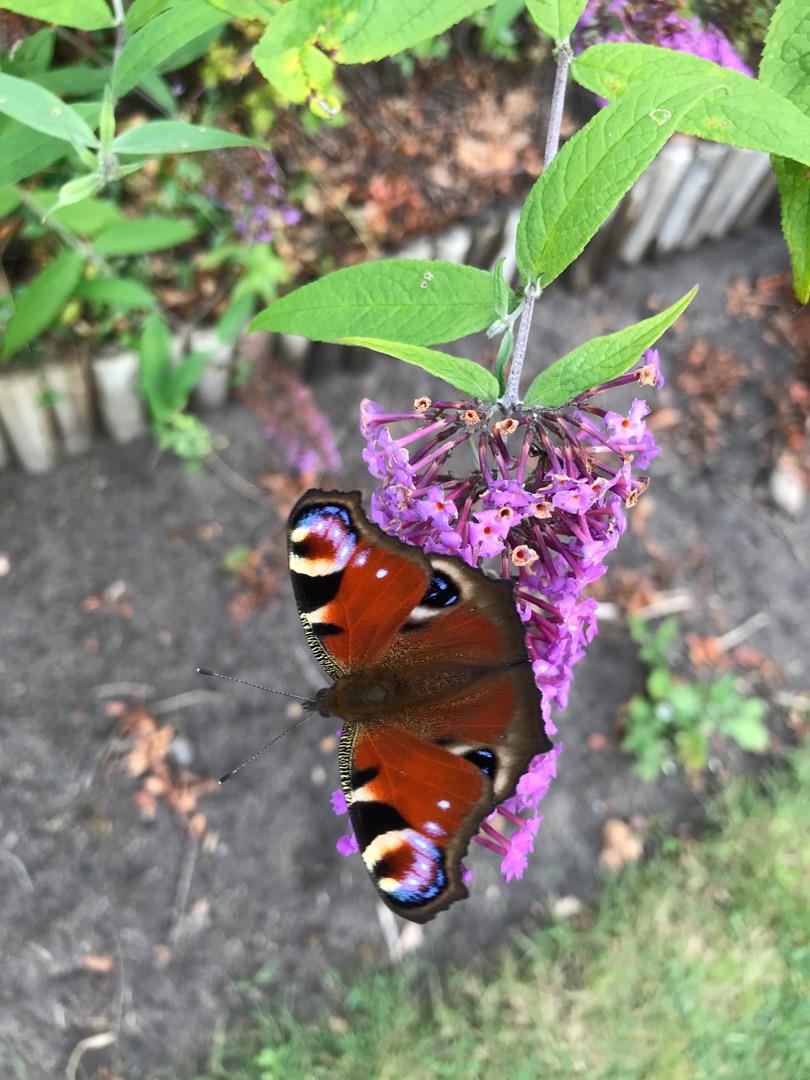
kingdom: Animalia
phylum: Arthropoda
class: Insecta
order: Lepidoptera
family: Nymphalidae
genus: Aglais
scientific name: Aglais io
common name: Dagpåfugleøje
